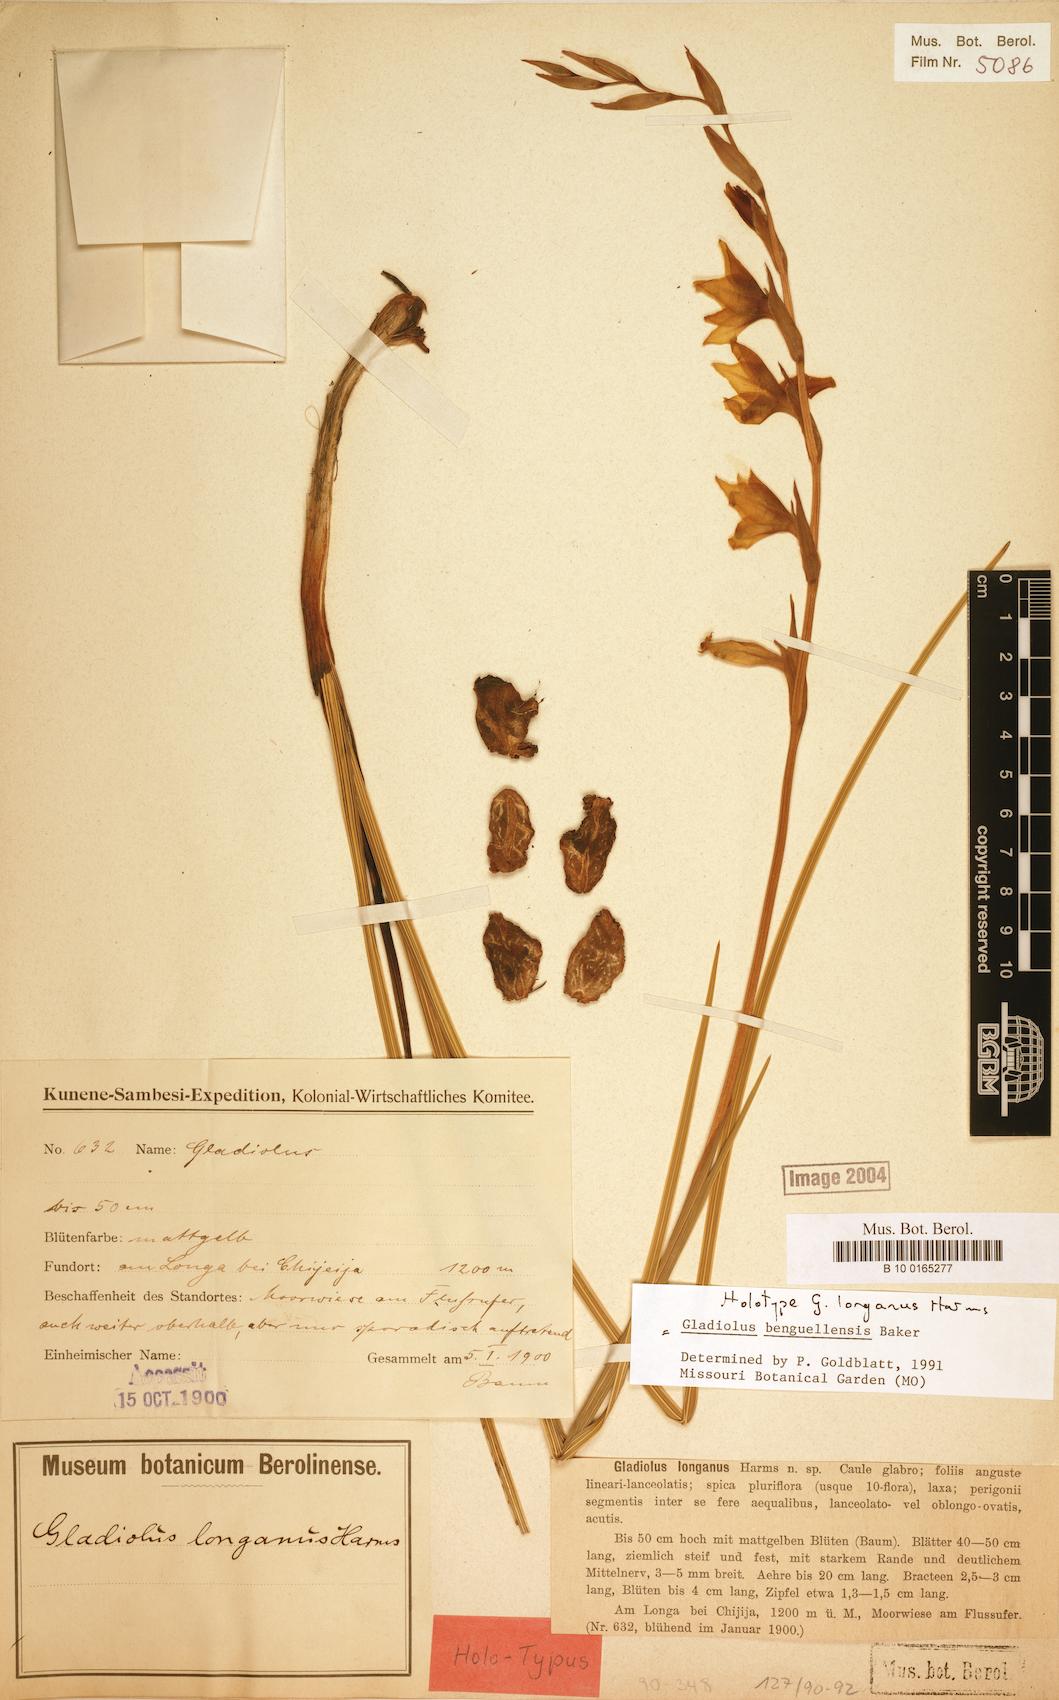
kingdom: Plantae
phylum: Tracheophyta
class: Liliopsida
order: Asparagales
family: Iridaceae
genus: Gladiolus
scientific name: Gladiolus benguellensis
